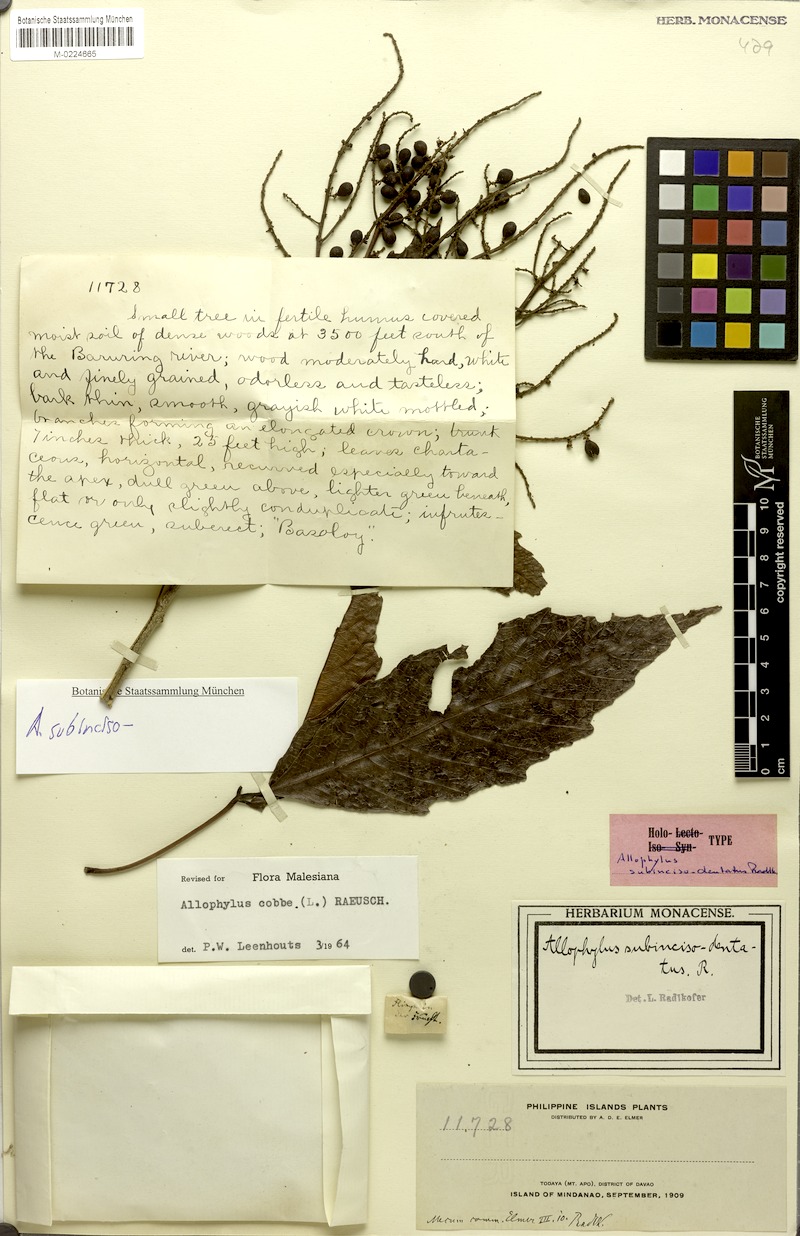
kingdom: Plantae
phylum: Tracheophyta
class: Magnoliopsida
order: Sapindales
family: Sapindaceae
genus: Allophylus
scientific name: Allophylus subincisodentatus
